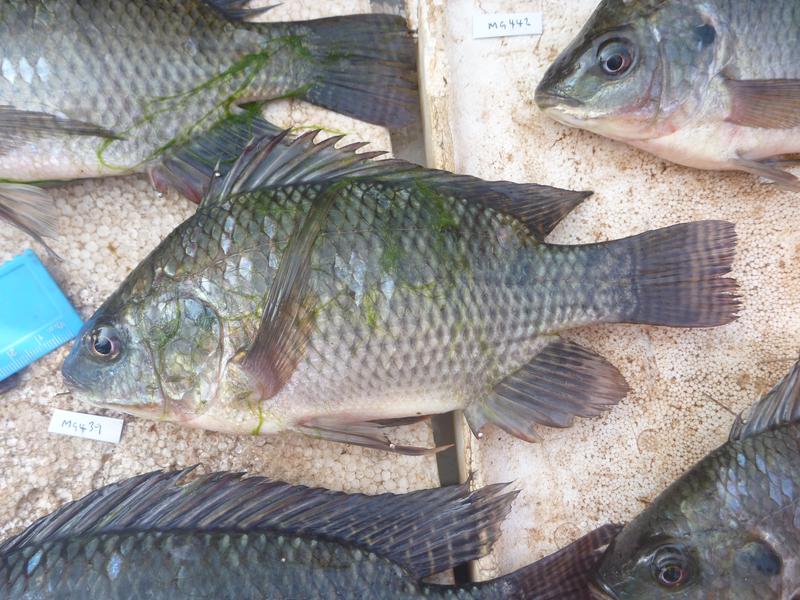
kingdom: Animalia
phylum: Chordata
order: Perciformes
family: Cichlidae
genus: Oreochromis
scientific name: Oreochromis niloticus
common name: Nile tilapia
